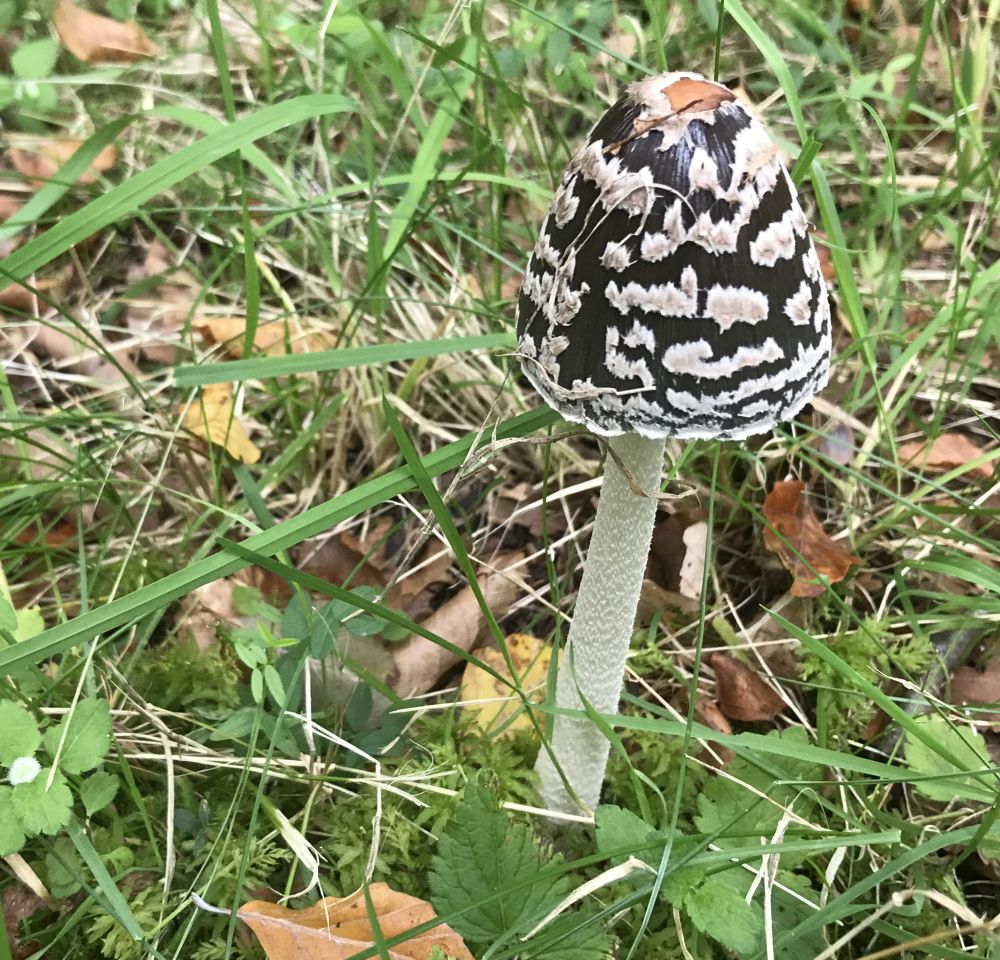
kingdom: Fungi
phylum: Basidiomycota
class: Agaricomycetes
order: Agaricales
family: Psathyrellaceae
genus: Coprinopsis
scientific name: Coprinopsis picacea
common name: skade-blækhat
